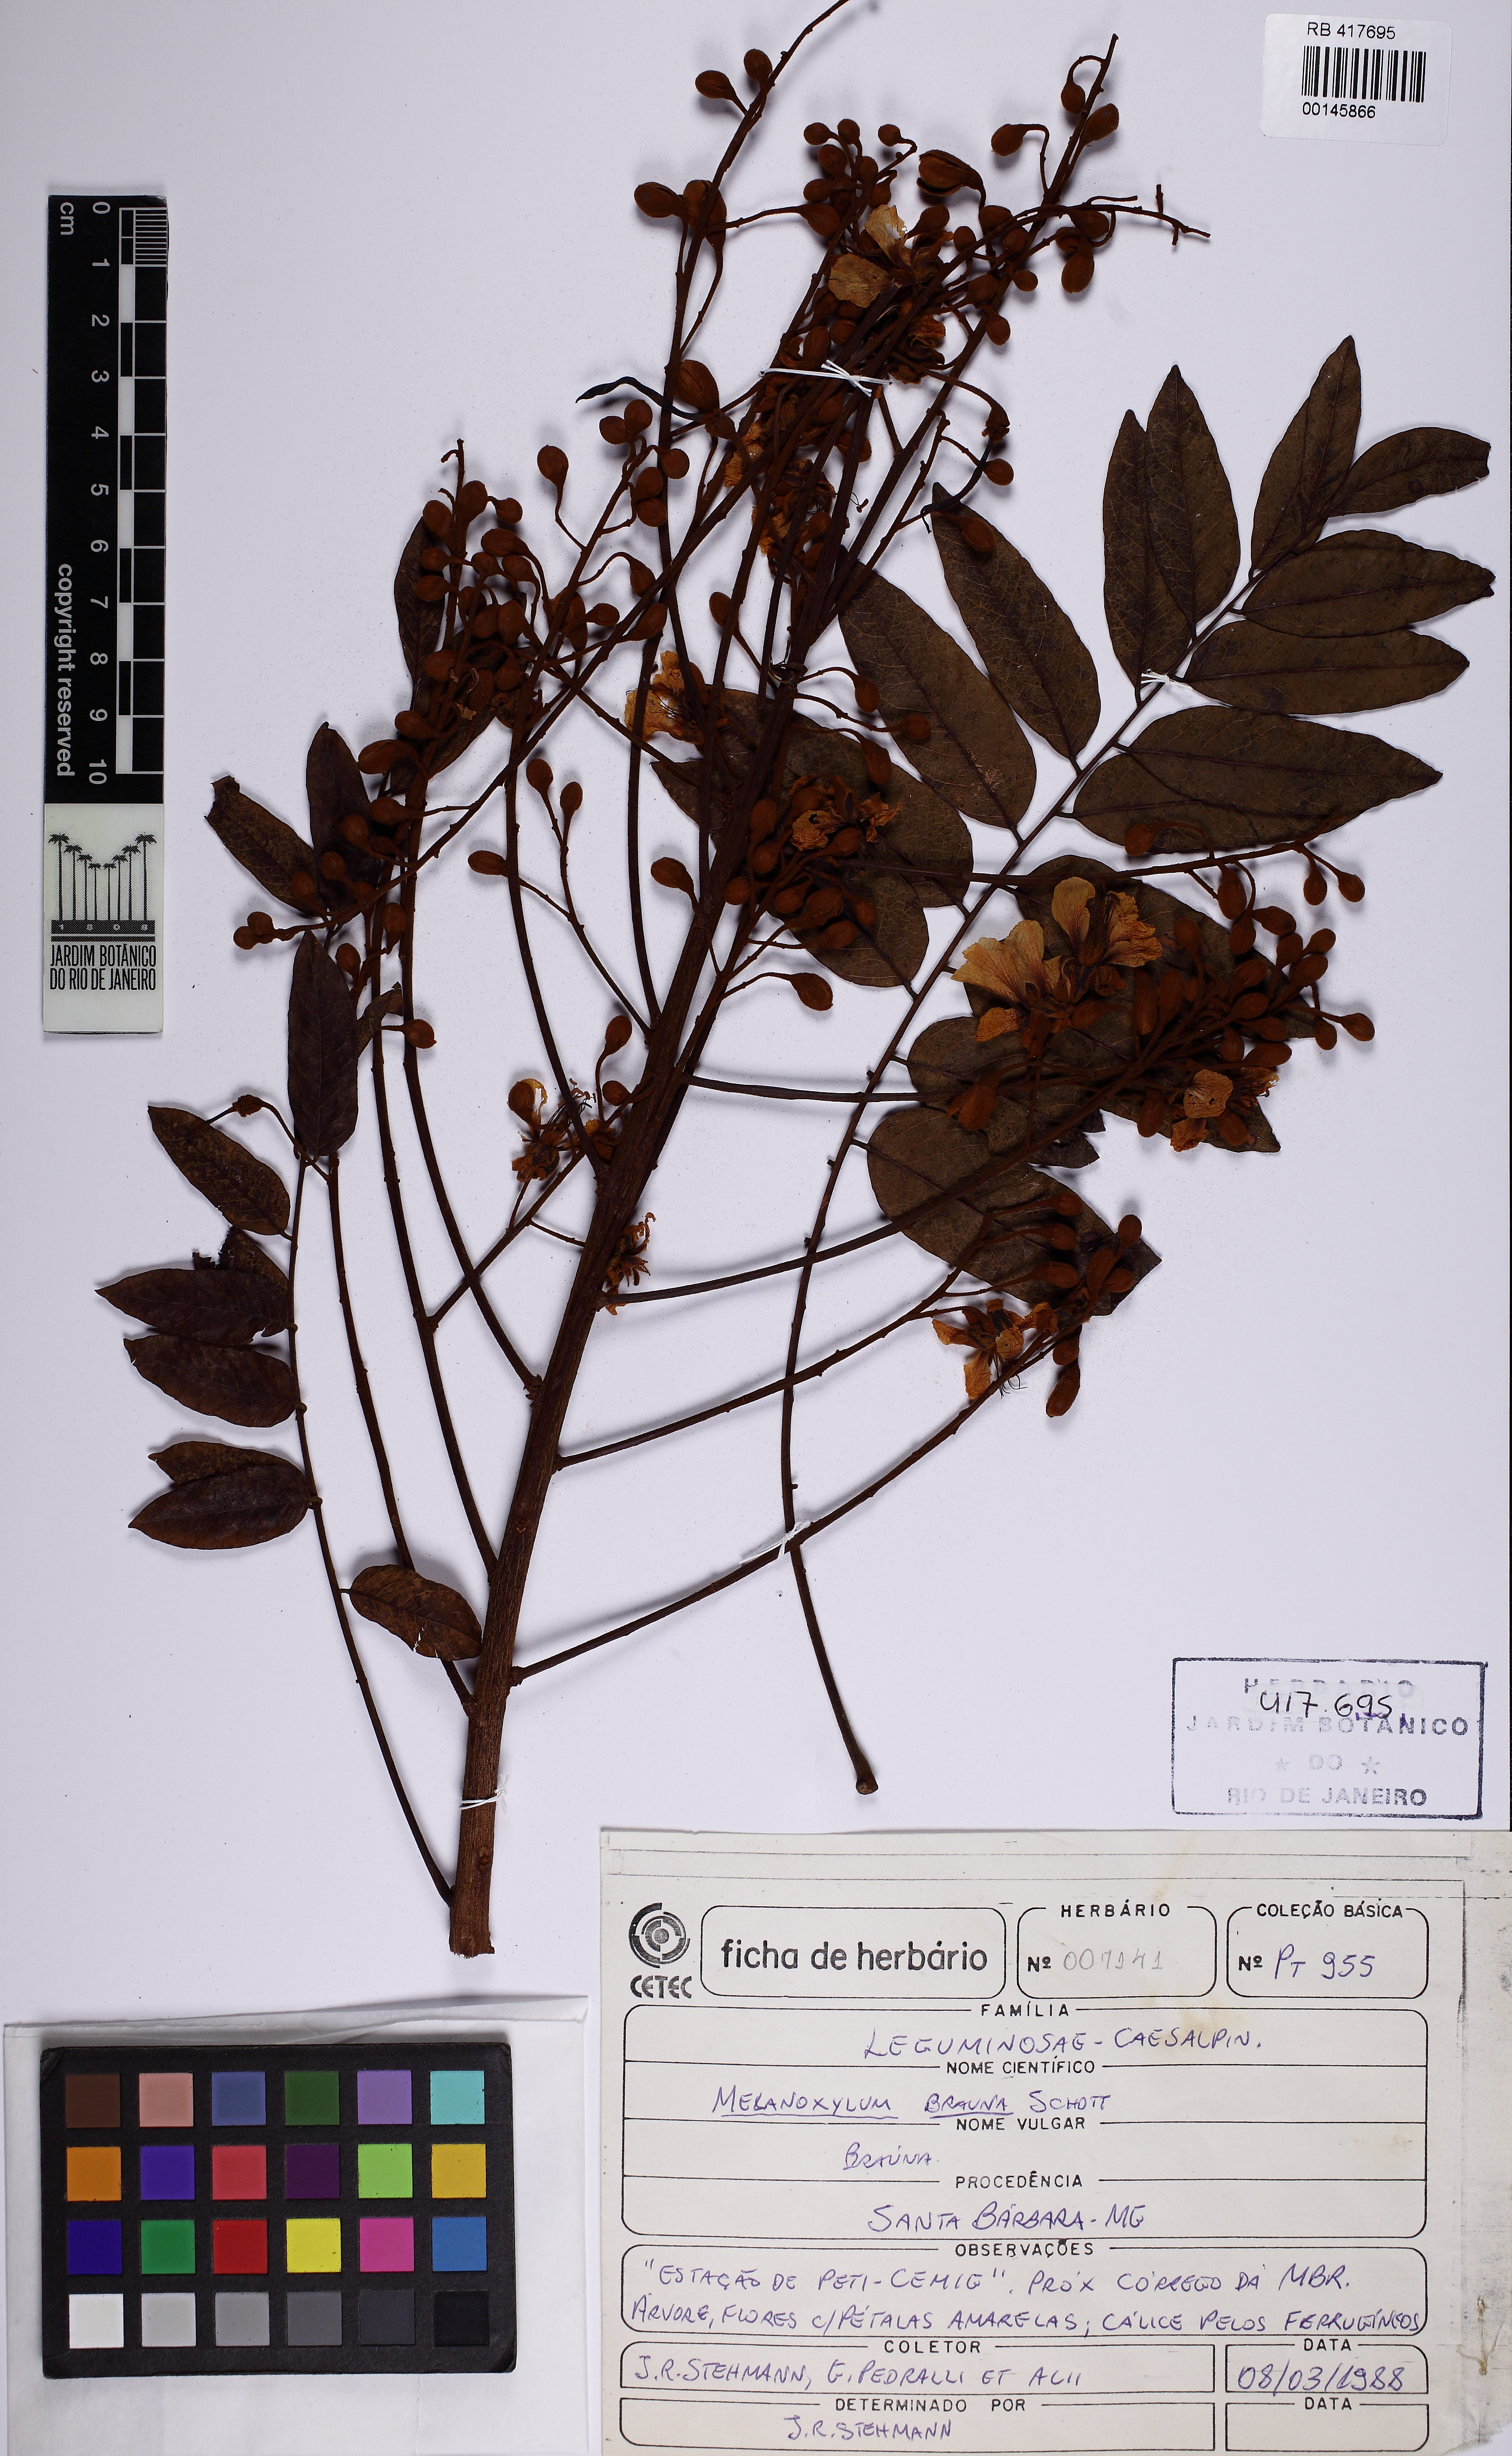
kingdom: Plantae
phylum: Tracheophyta
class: Magnoliopsida
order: Fabales
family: Fabaceae
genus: Melanoxylon
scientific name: Melanoxylon brauna
